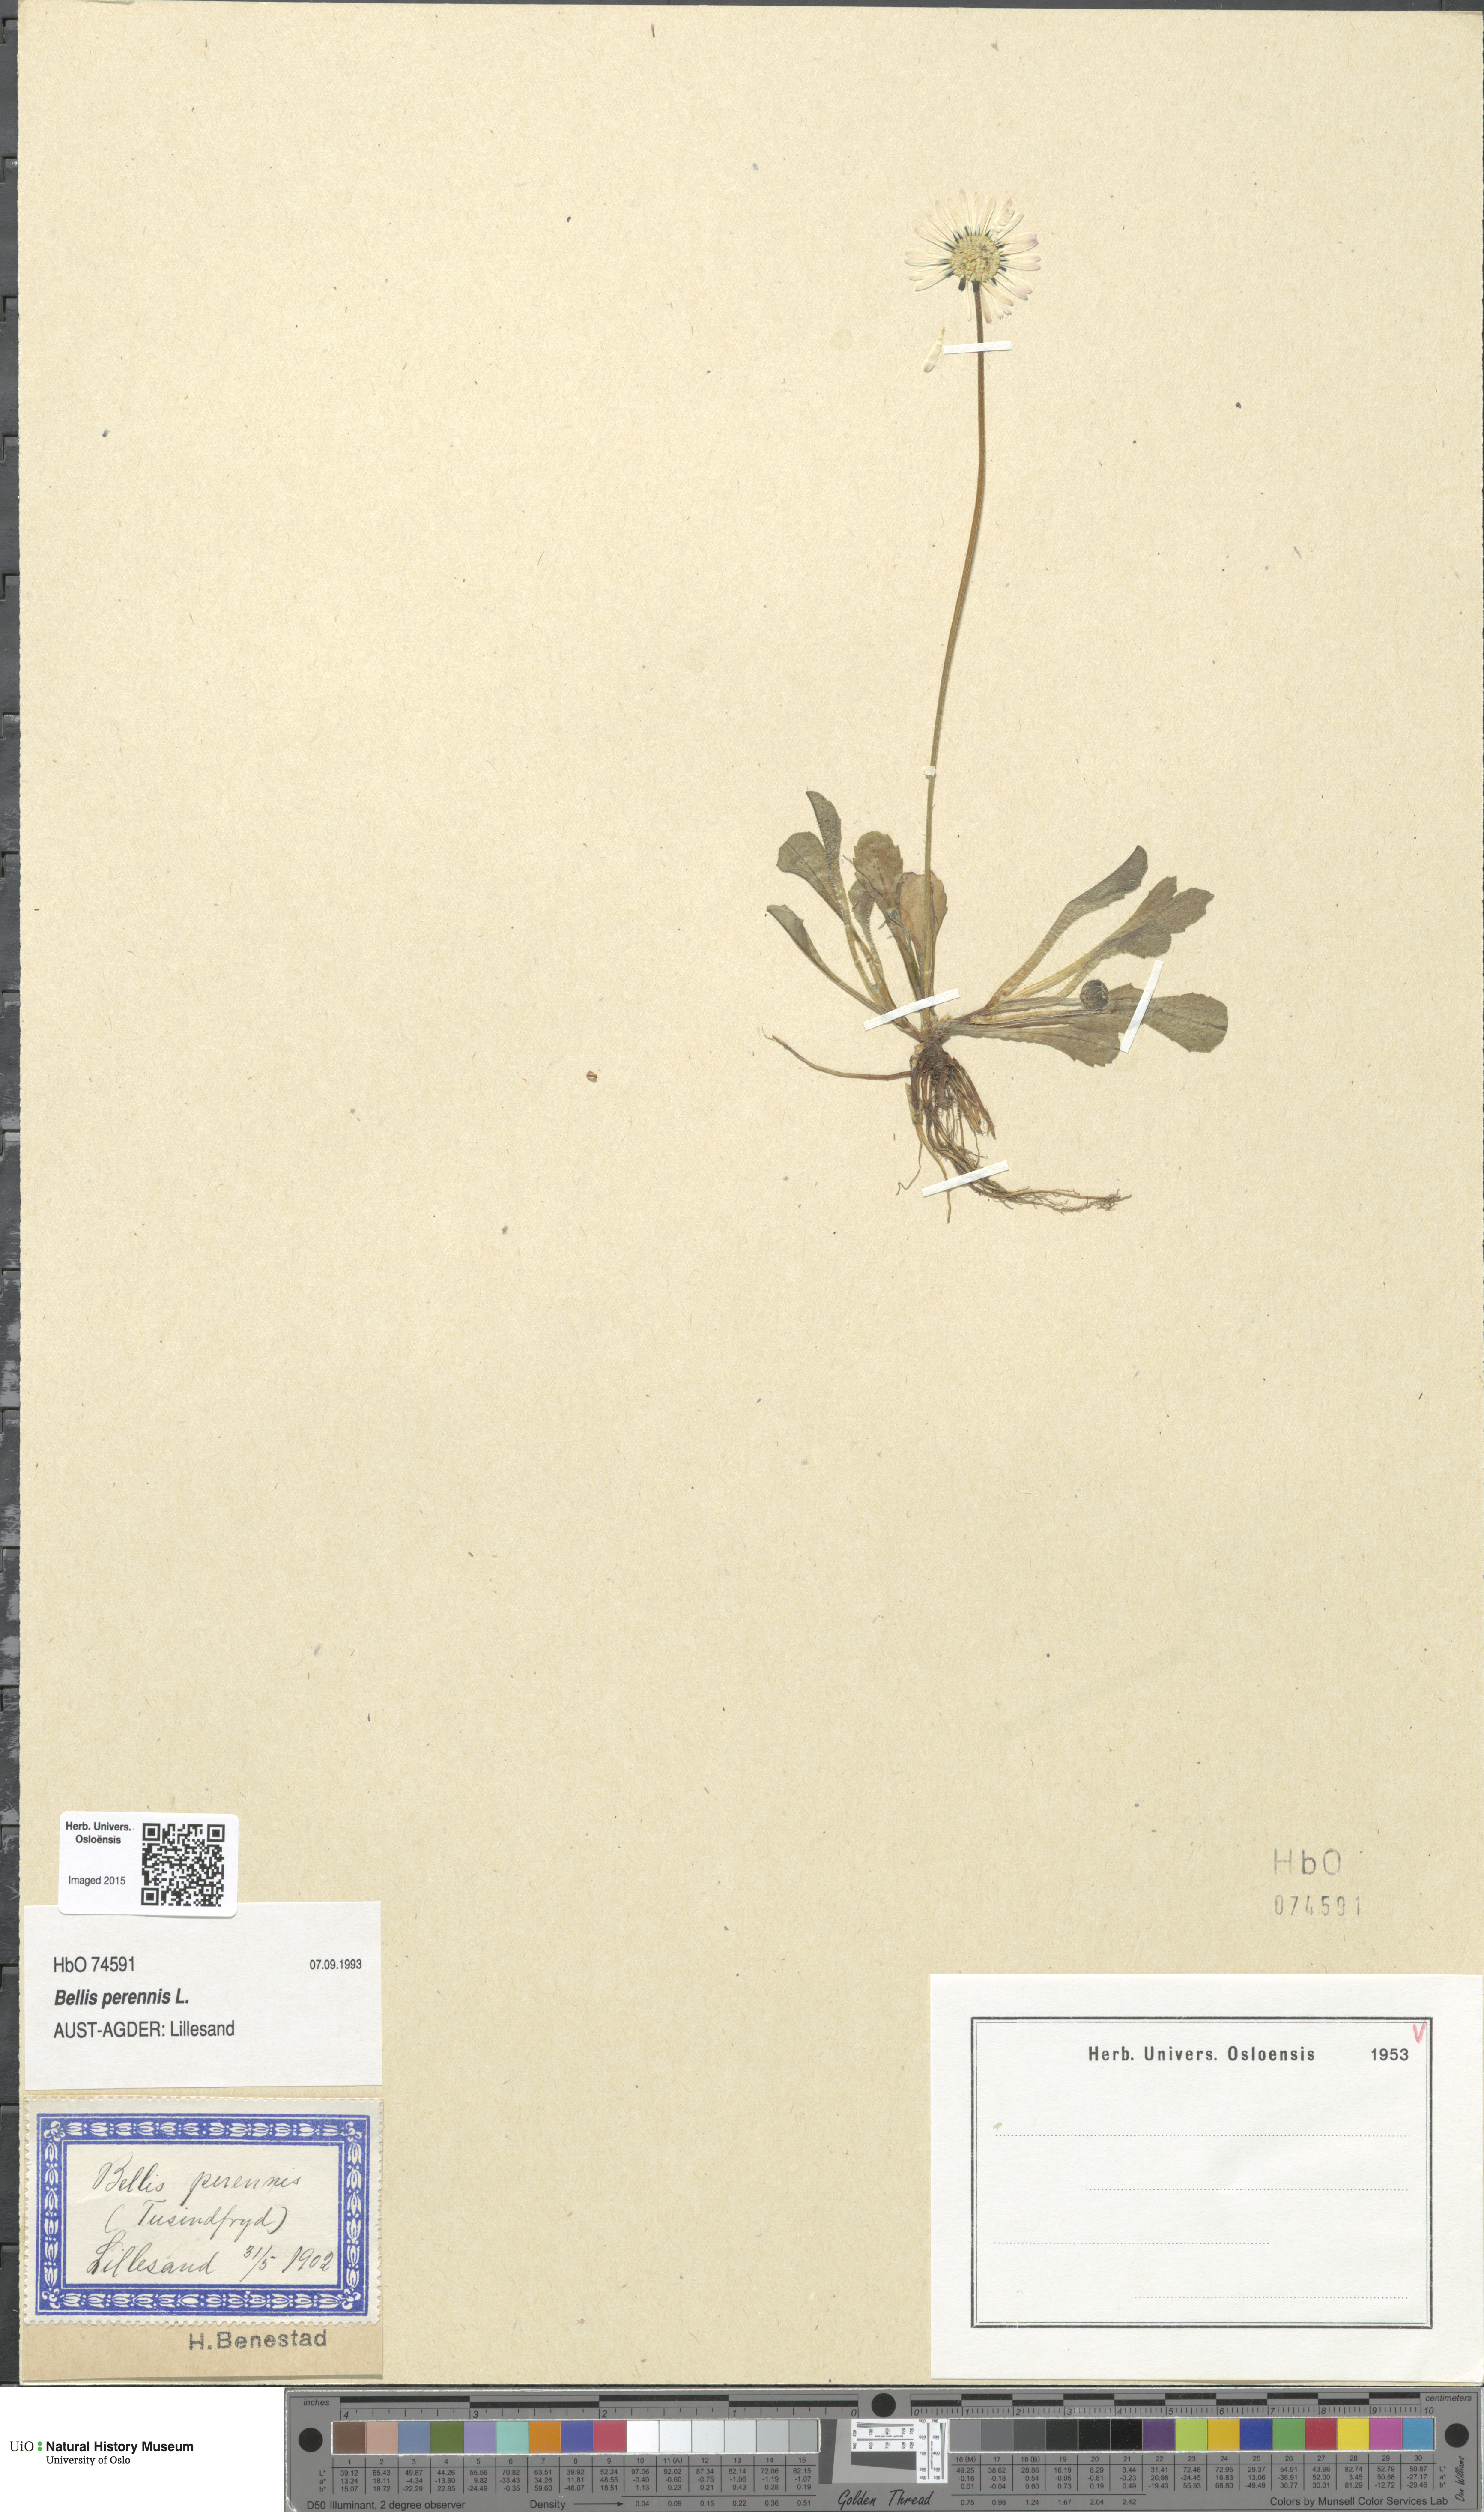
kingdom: Plantae
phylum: Tracheophyta
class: Magnoliopsida
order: Asterales
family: Asteraceae
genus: Bellis
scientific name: Bellis perennis
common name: Lawndaisy
